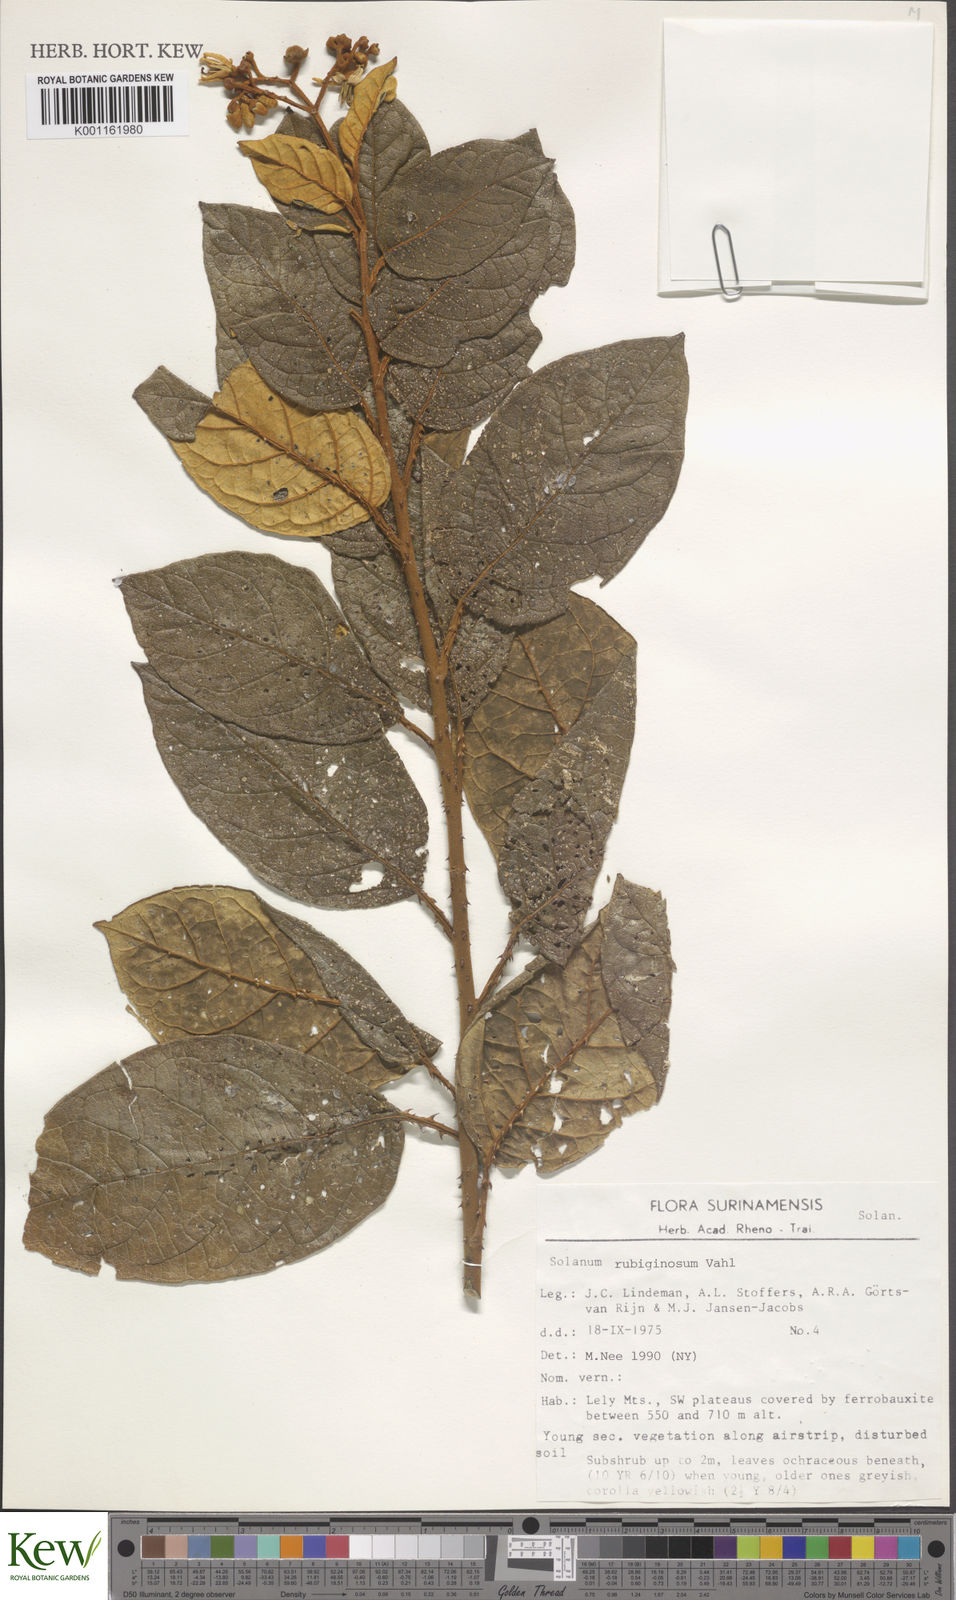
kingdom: Plantae
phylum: Tracheophyta
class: Magnoliopsida
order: Solanales
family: Solanaceae
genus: Solanum
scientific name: Solanum rubiginosum
